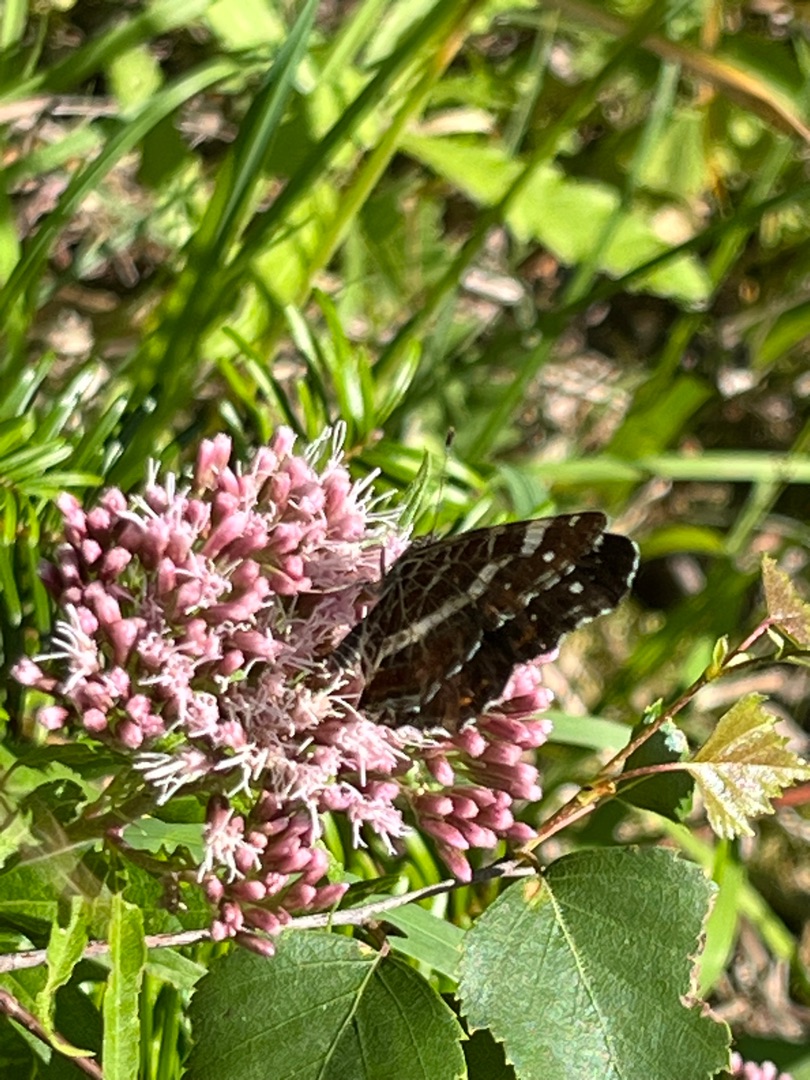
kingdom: Animalia
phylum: Arthropoda
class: Insecta
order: Lepidoptera
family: Nymphalidae
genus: Araschnia
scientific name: Araschnia levana
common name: Nældesommerfugl
